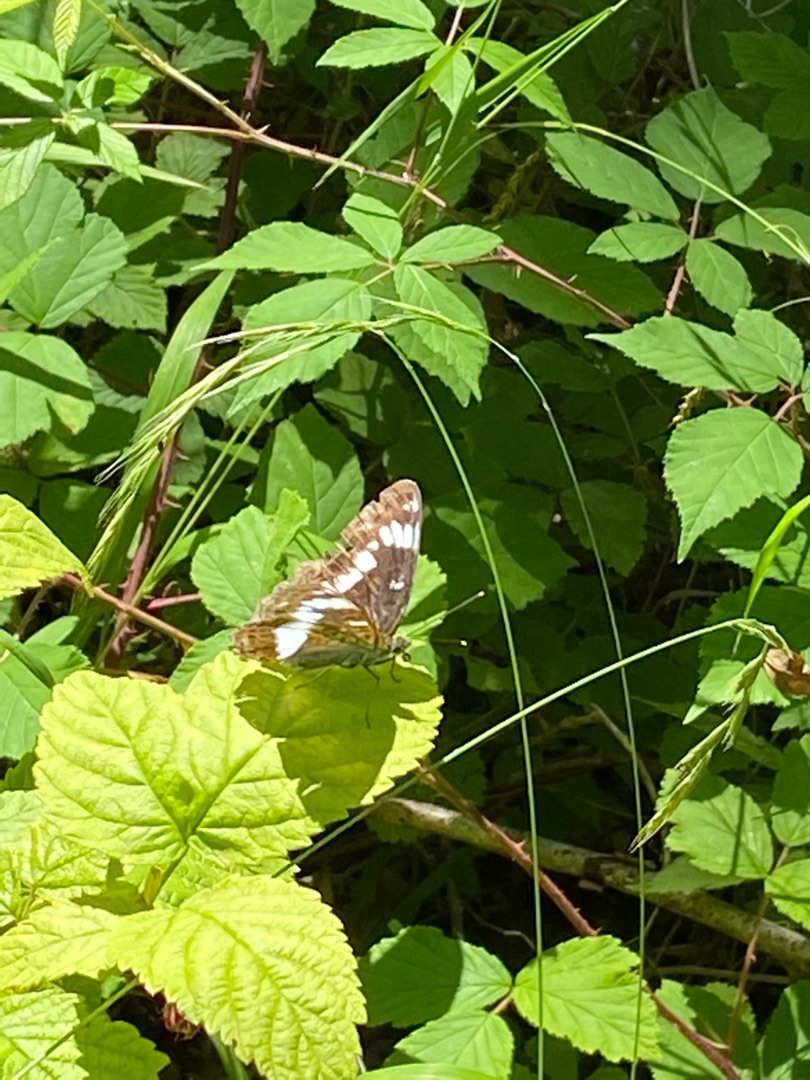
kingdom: Animalia
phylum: Arthropoda
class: Insecta
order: Lepidoptera
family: Nymphalidae
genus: Ladoga
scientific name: Ladoga camilla
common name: Hvid admiral
